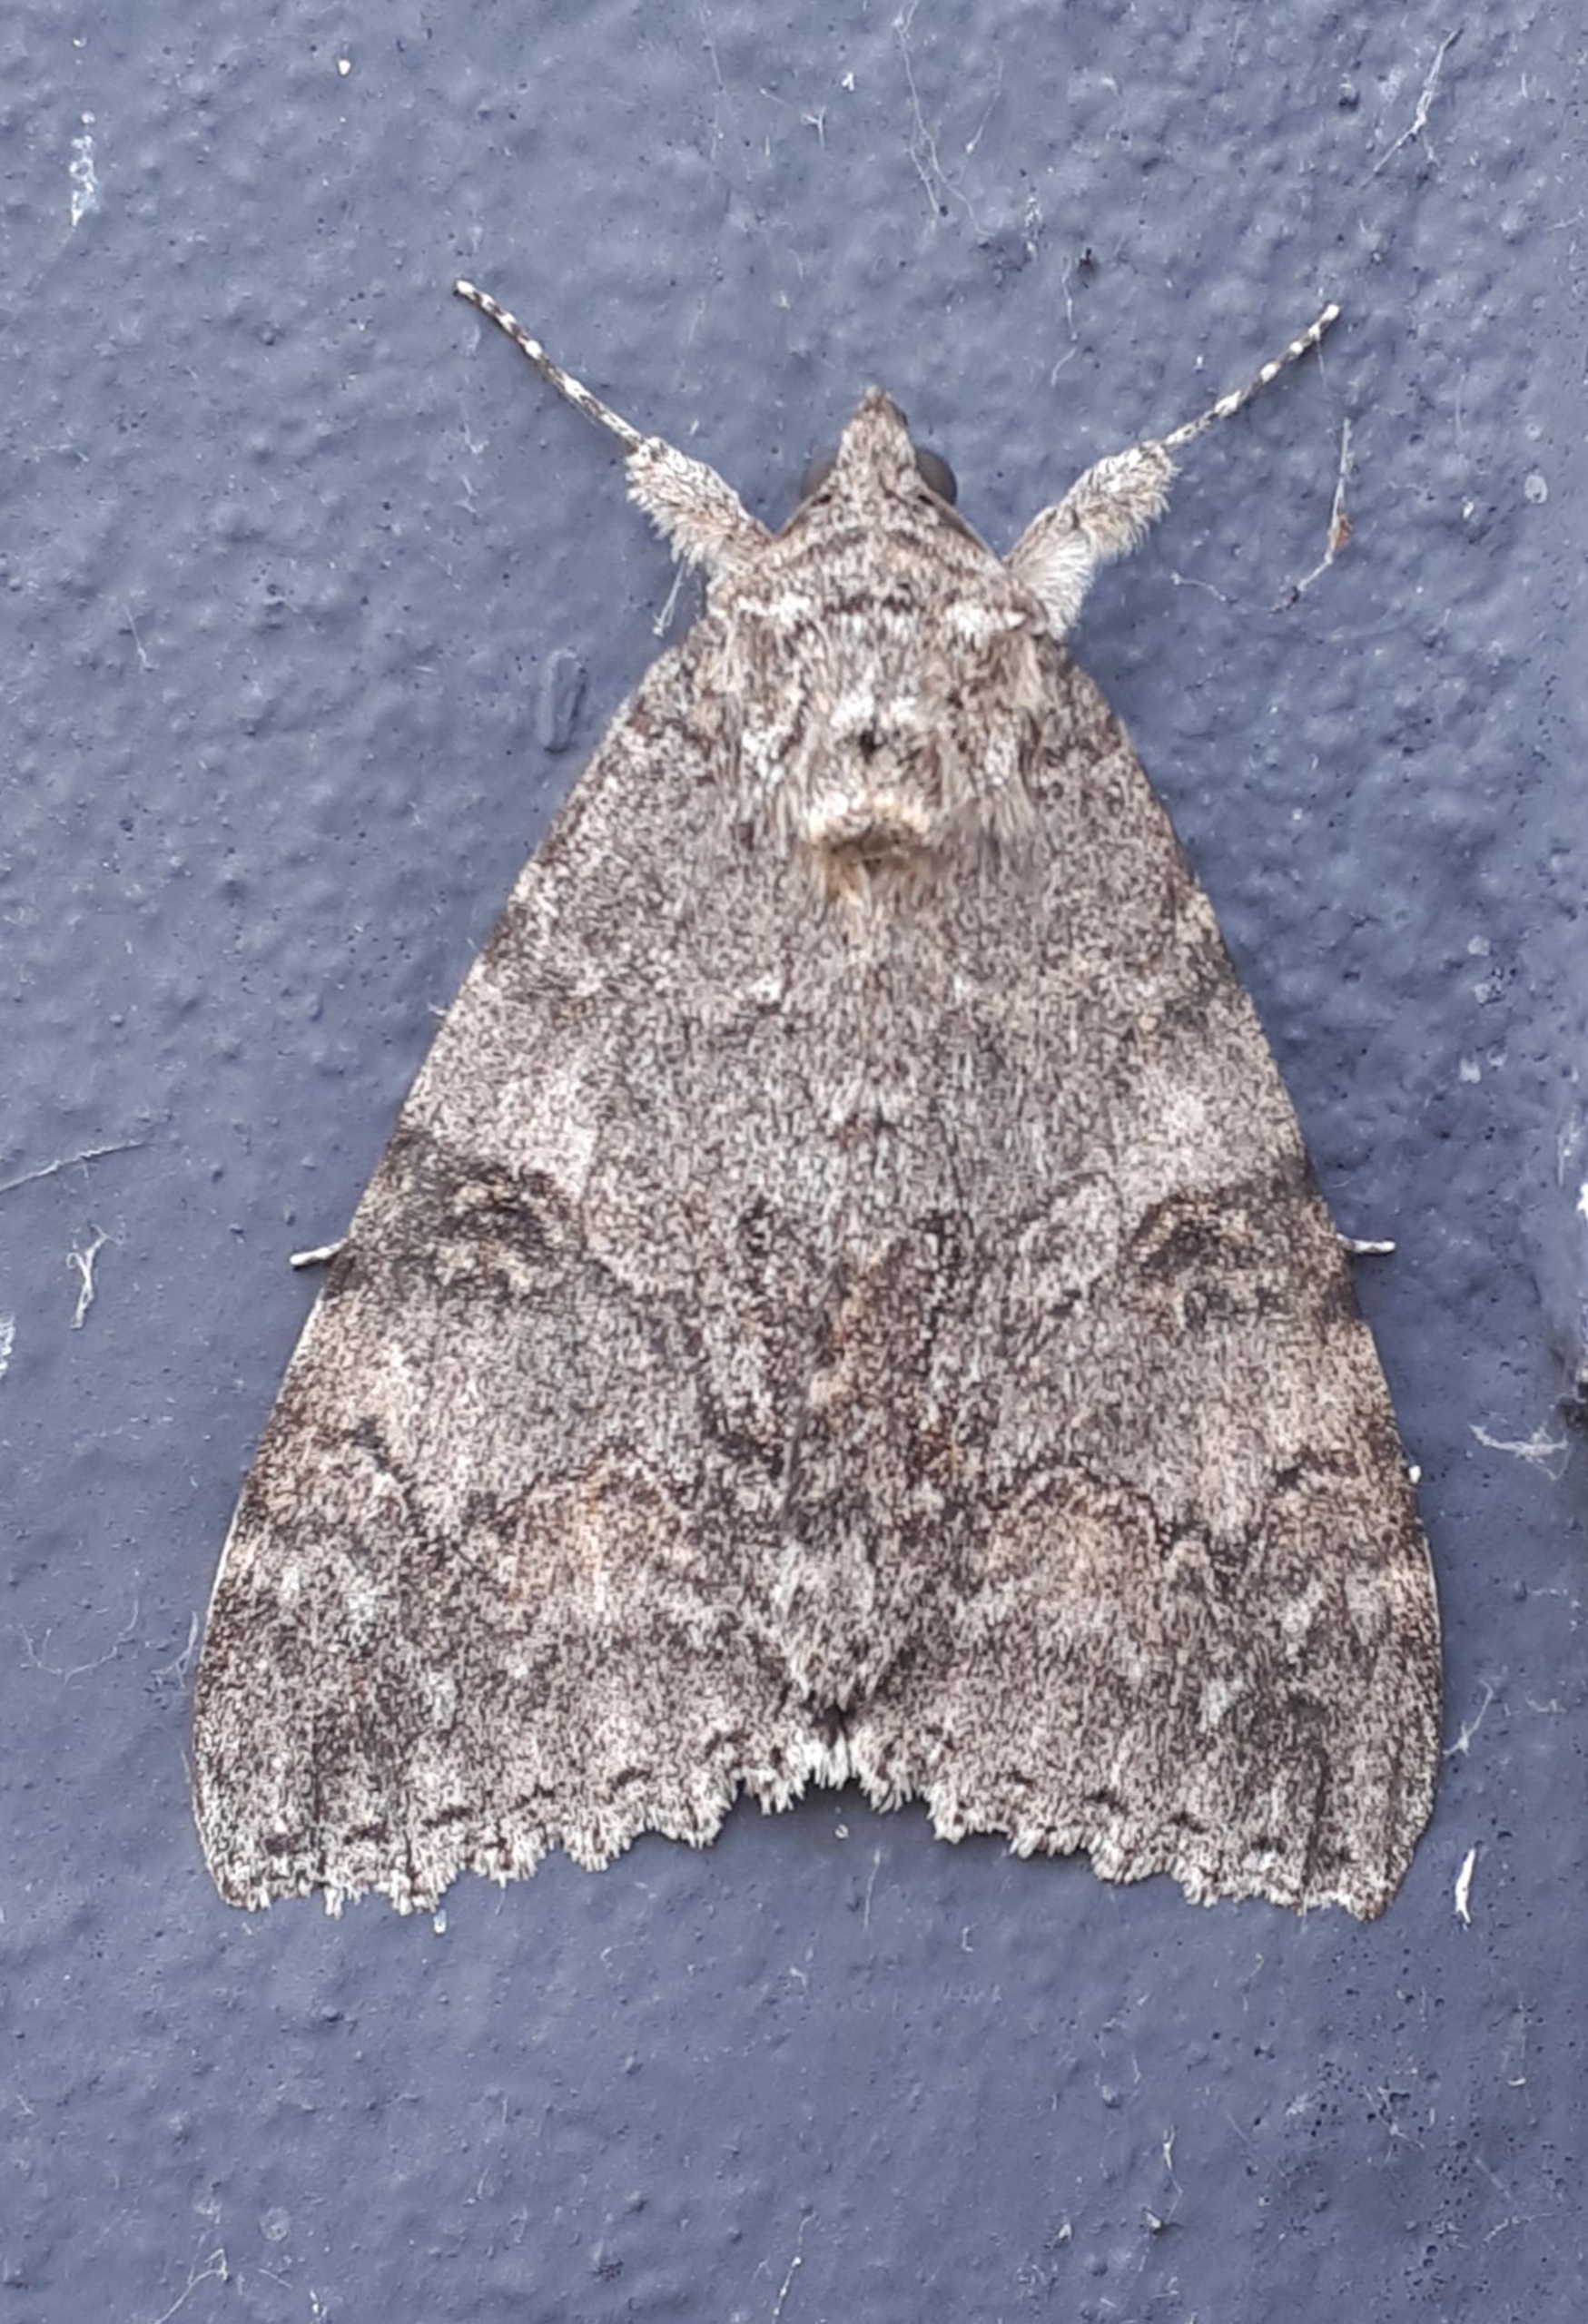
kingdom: Animalia
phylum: Arthropoda
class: Insecta
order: Lepidoptera
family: Erebidae
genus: Catocala
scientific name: Catocala nupta
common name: Rødt ordensbånd
